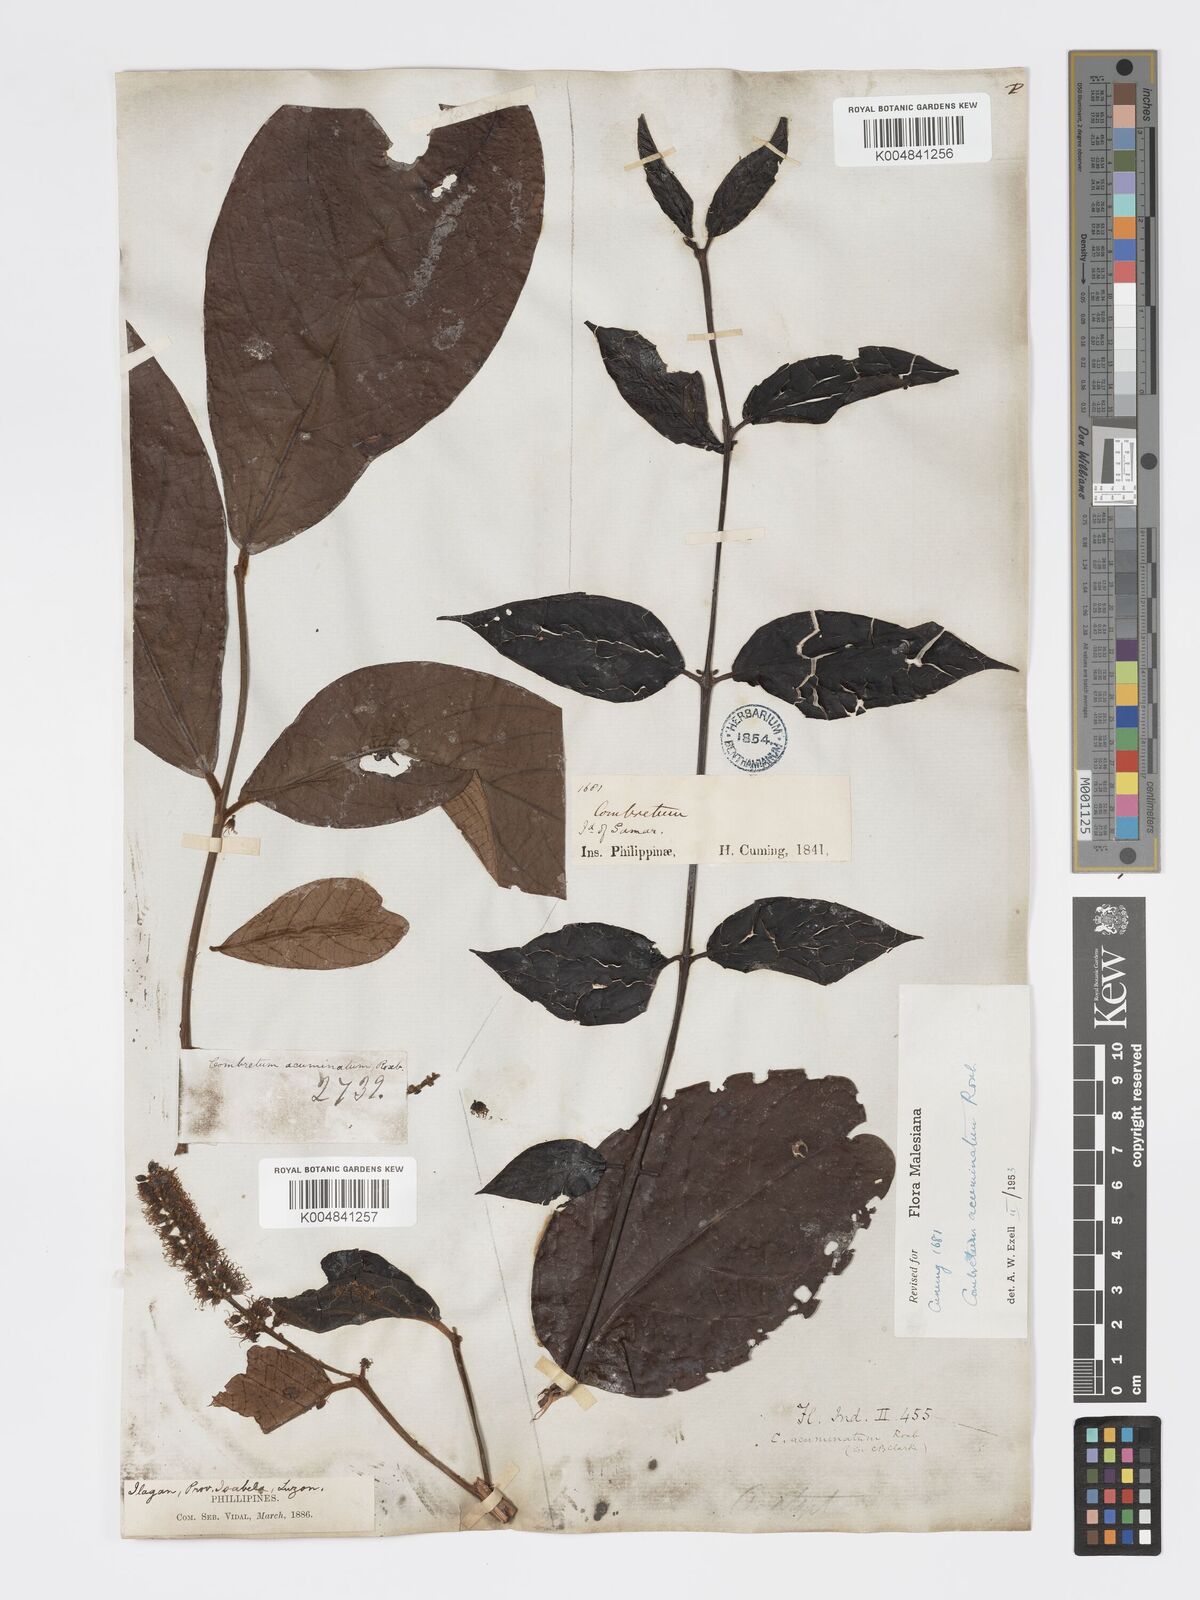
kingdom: Plantae
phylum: Tracheophyta
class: Magnoliopsida
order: Myrtales
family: Combretaceae
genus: Combretum
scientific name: Combretum acuminatum
